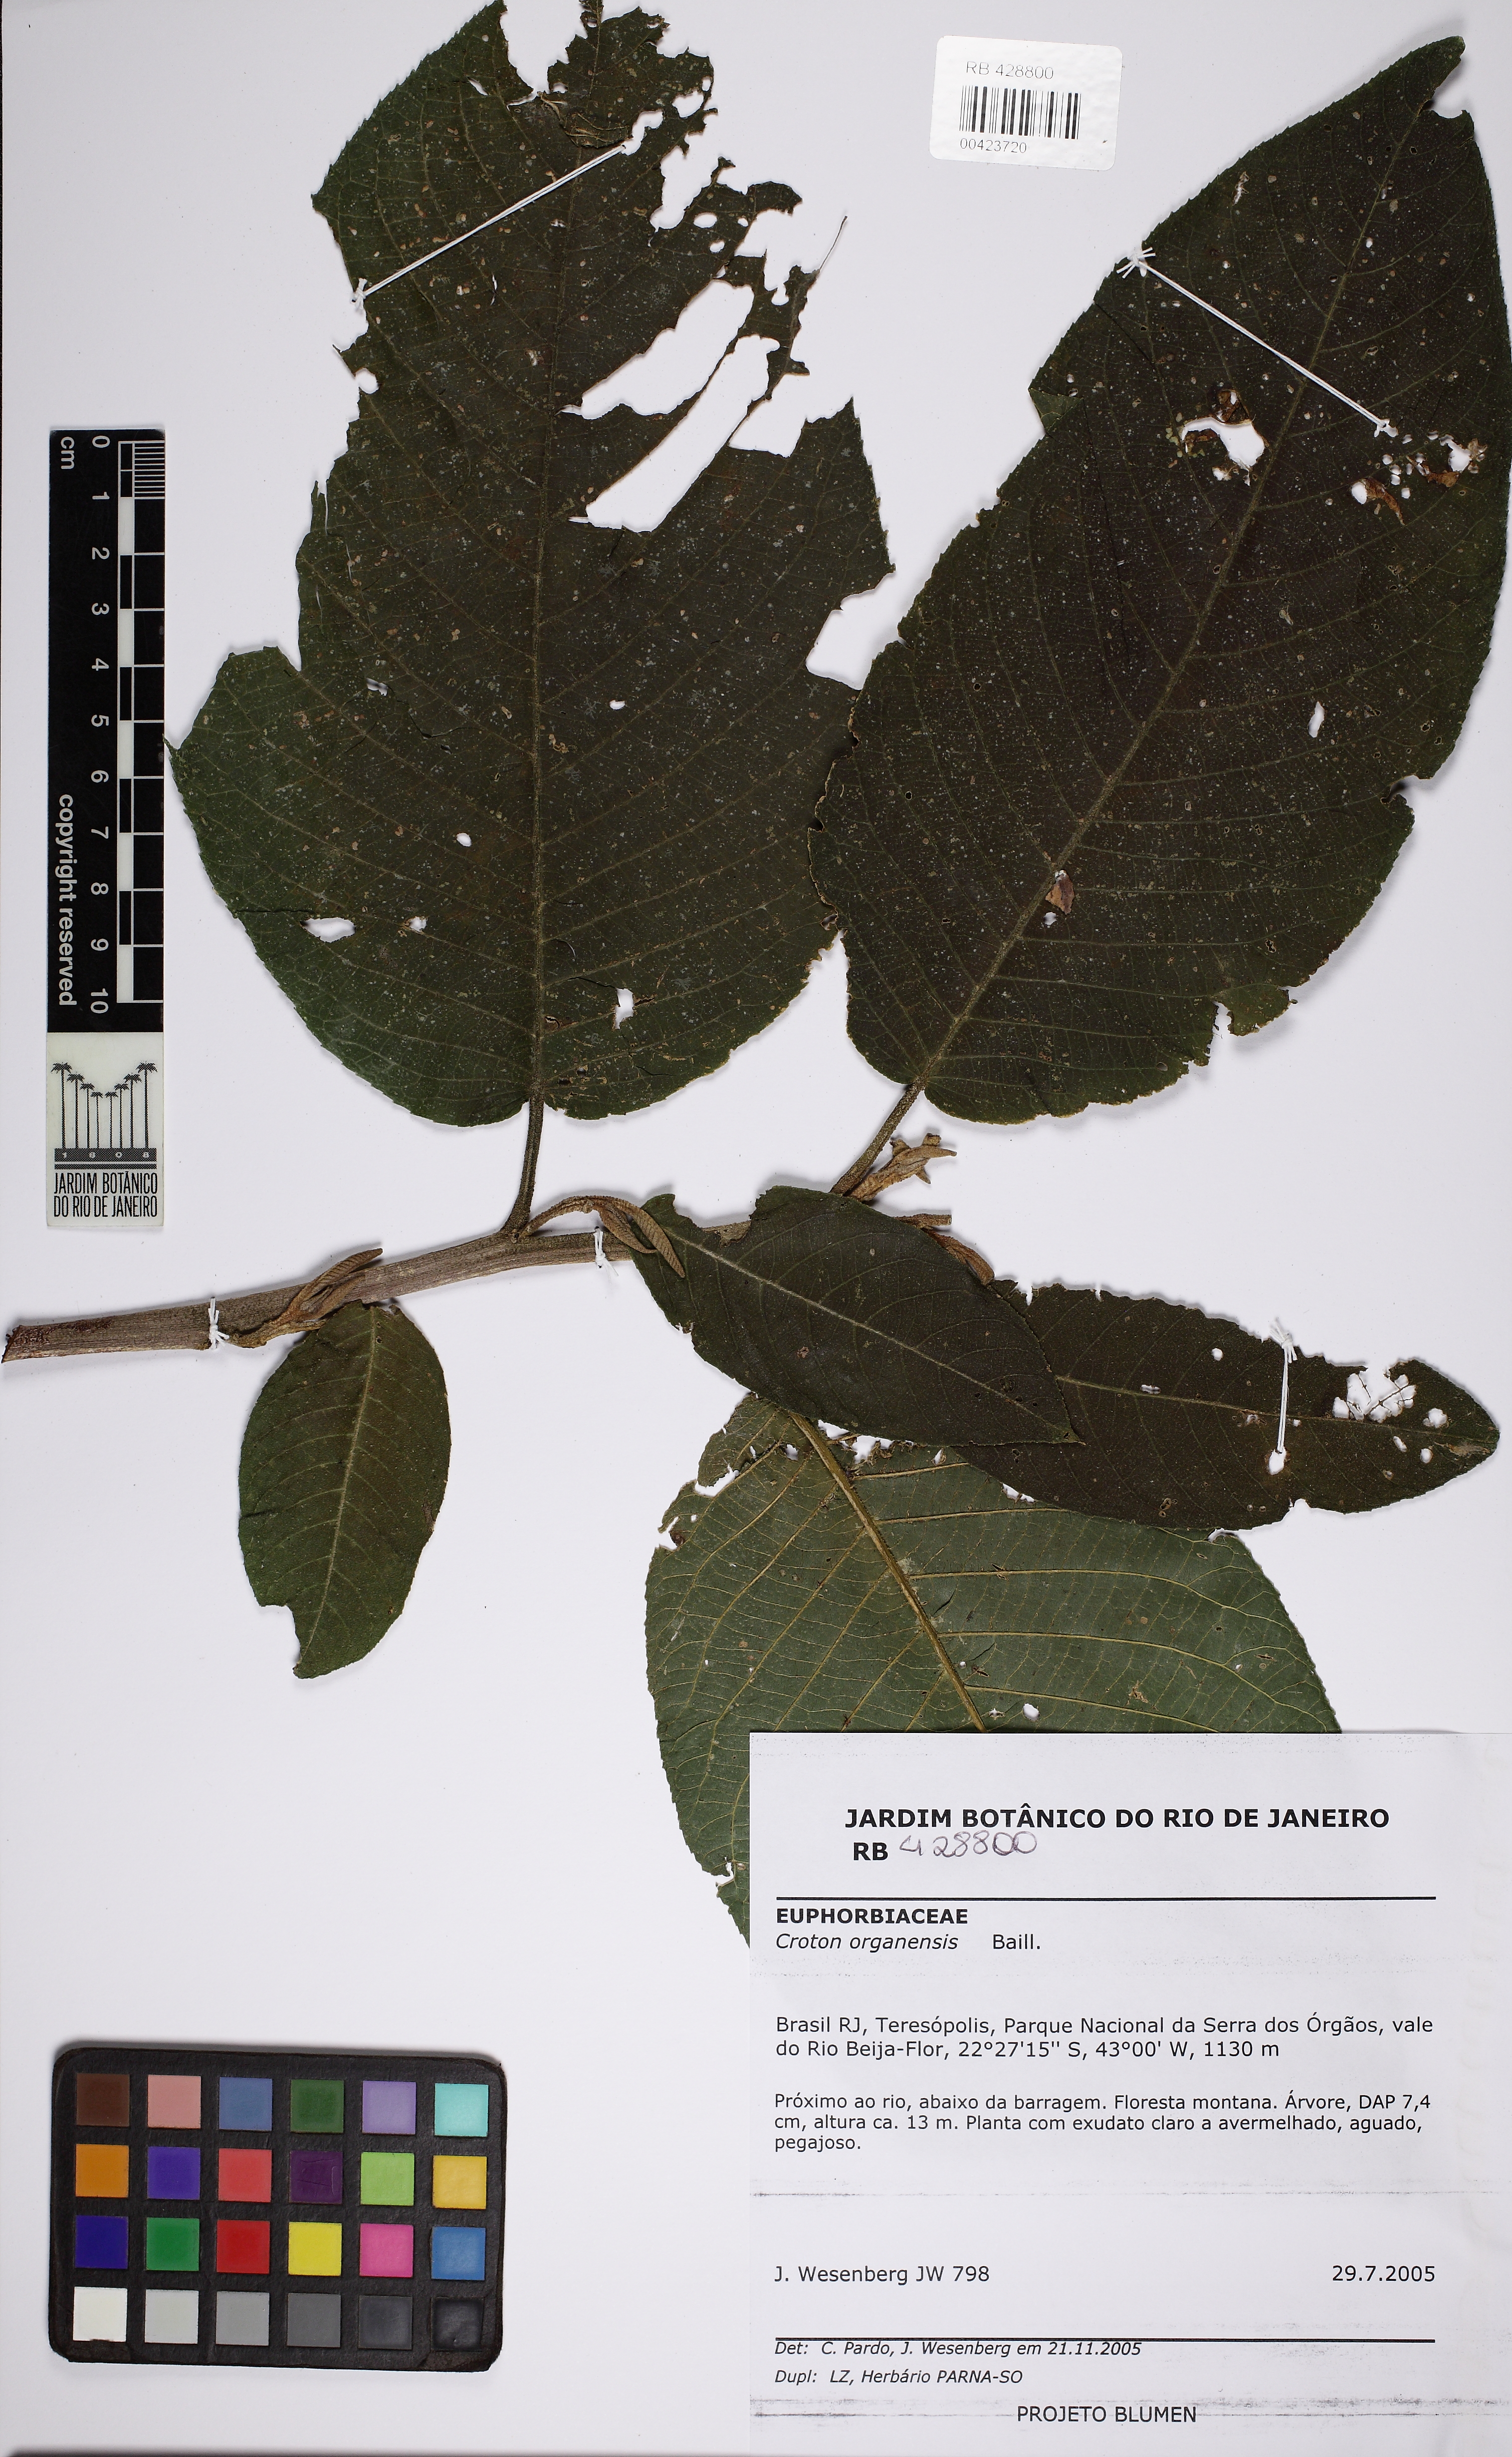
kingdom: Plantae
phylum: Tracheophyta
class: Magnoliopsida
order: Malpighiales
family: Euphorbiaceae
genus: Croton
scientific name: Croton organensis
